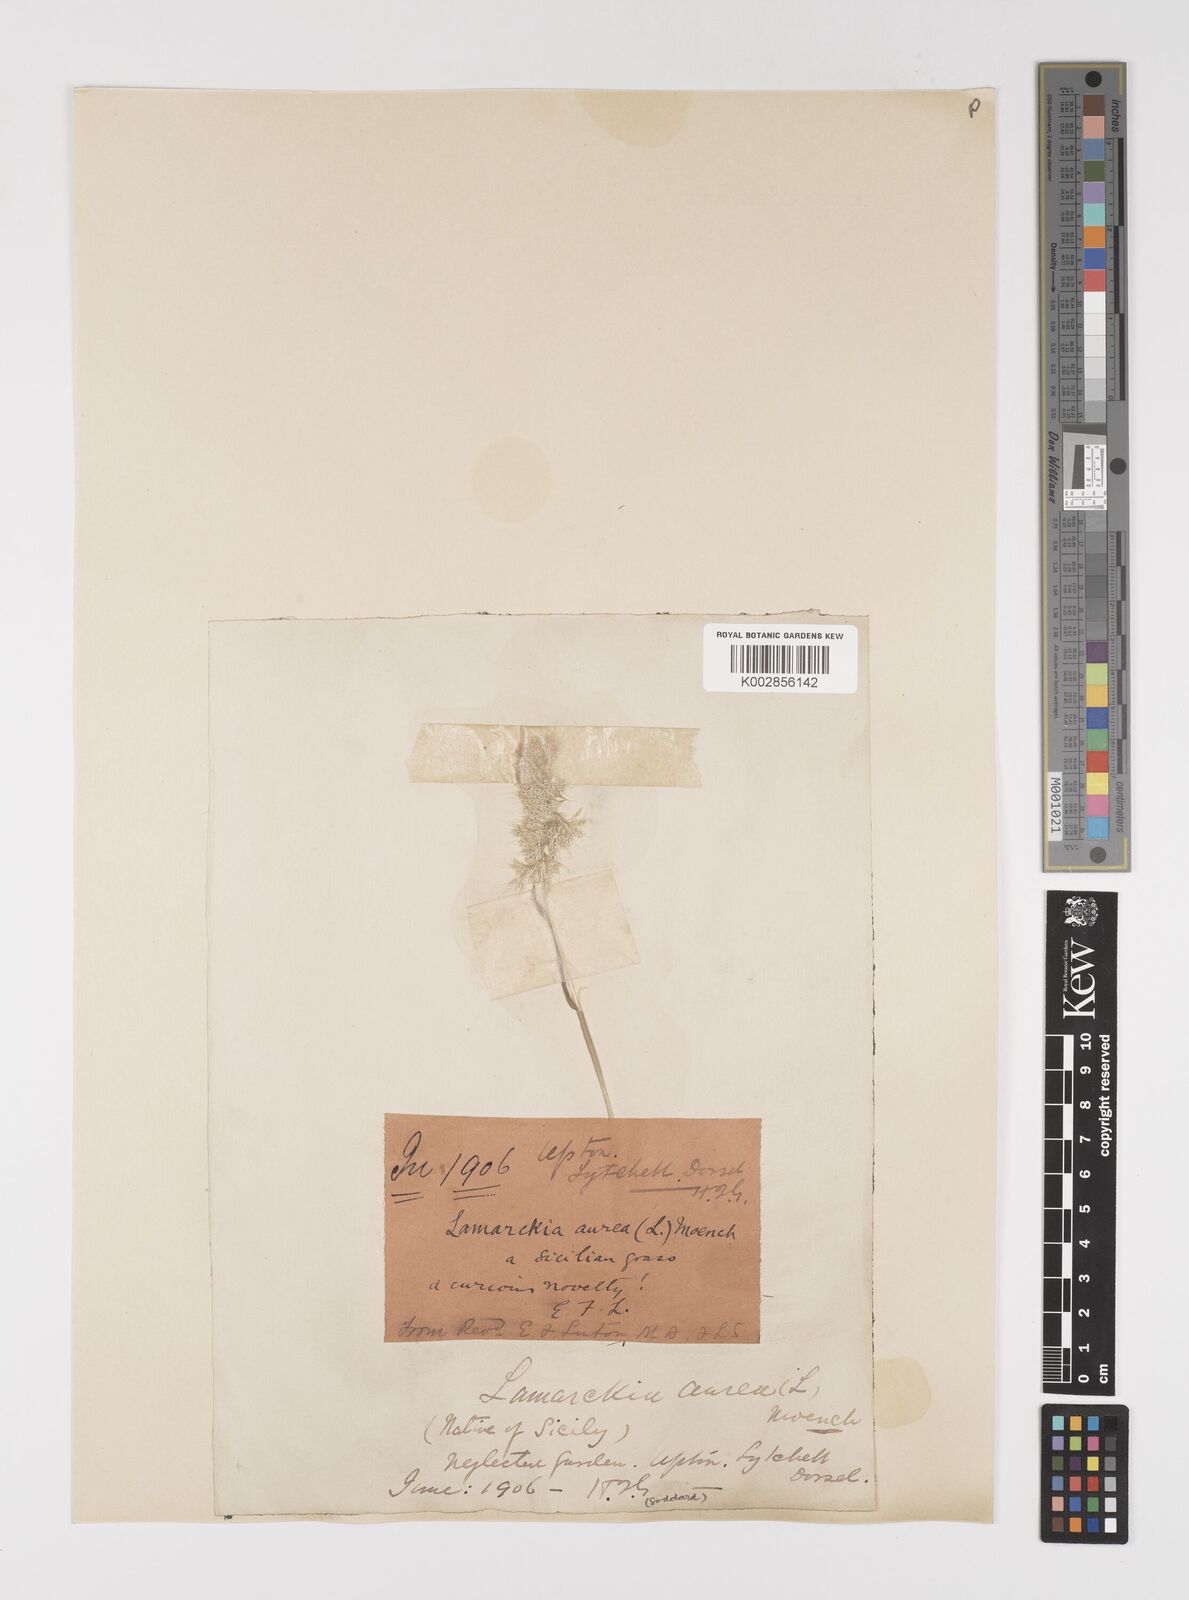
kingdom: Plantae
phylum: Tracheophyta
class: Liliopsida
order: Poales
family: Poaceae
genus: Lamarckia
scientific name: Lamarckia aurea
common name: Golden dog's-tail
